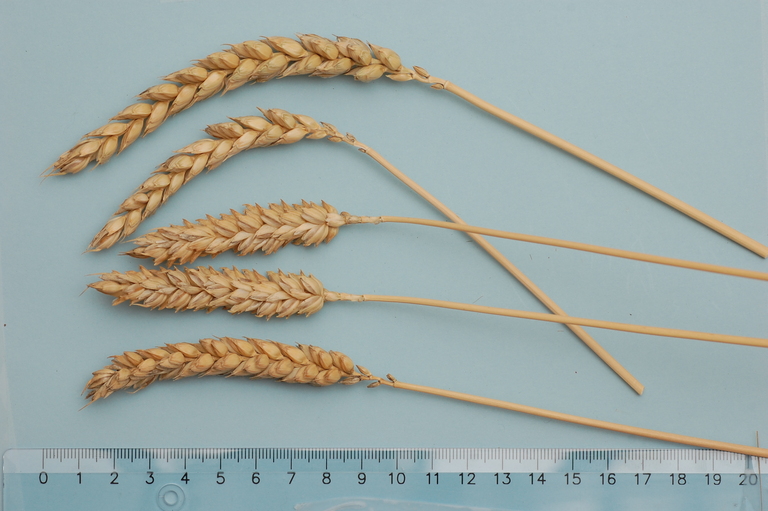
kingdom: Plantae
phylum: Tracheophyta
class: Liliopsida
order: Poales
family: Poaceae
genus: Triticum
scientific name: Triticum aestivum
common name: Common wheat
